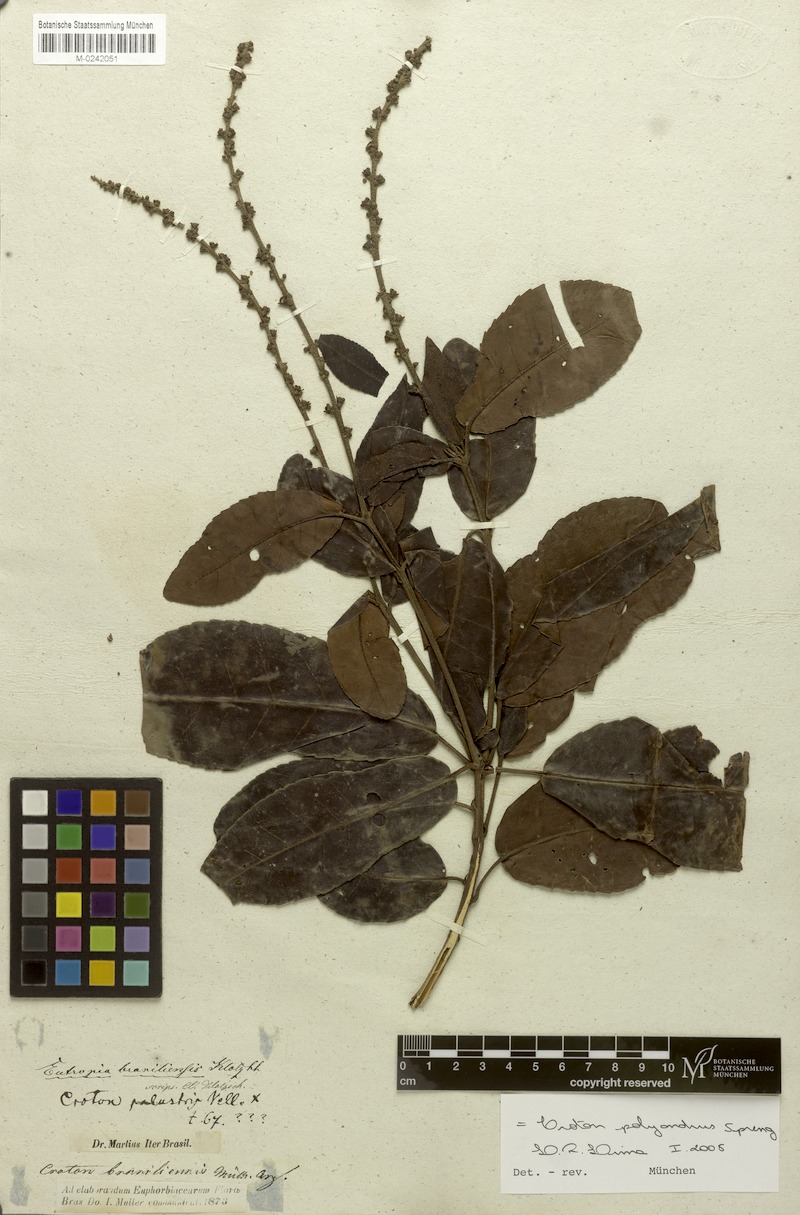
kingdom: Plantae
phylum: Tracheophyta
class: Magnoliopsida
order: Malpighiales
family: Euphorbiaceae
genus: Croton
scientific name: Croton polyandrus
